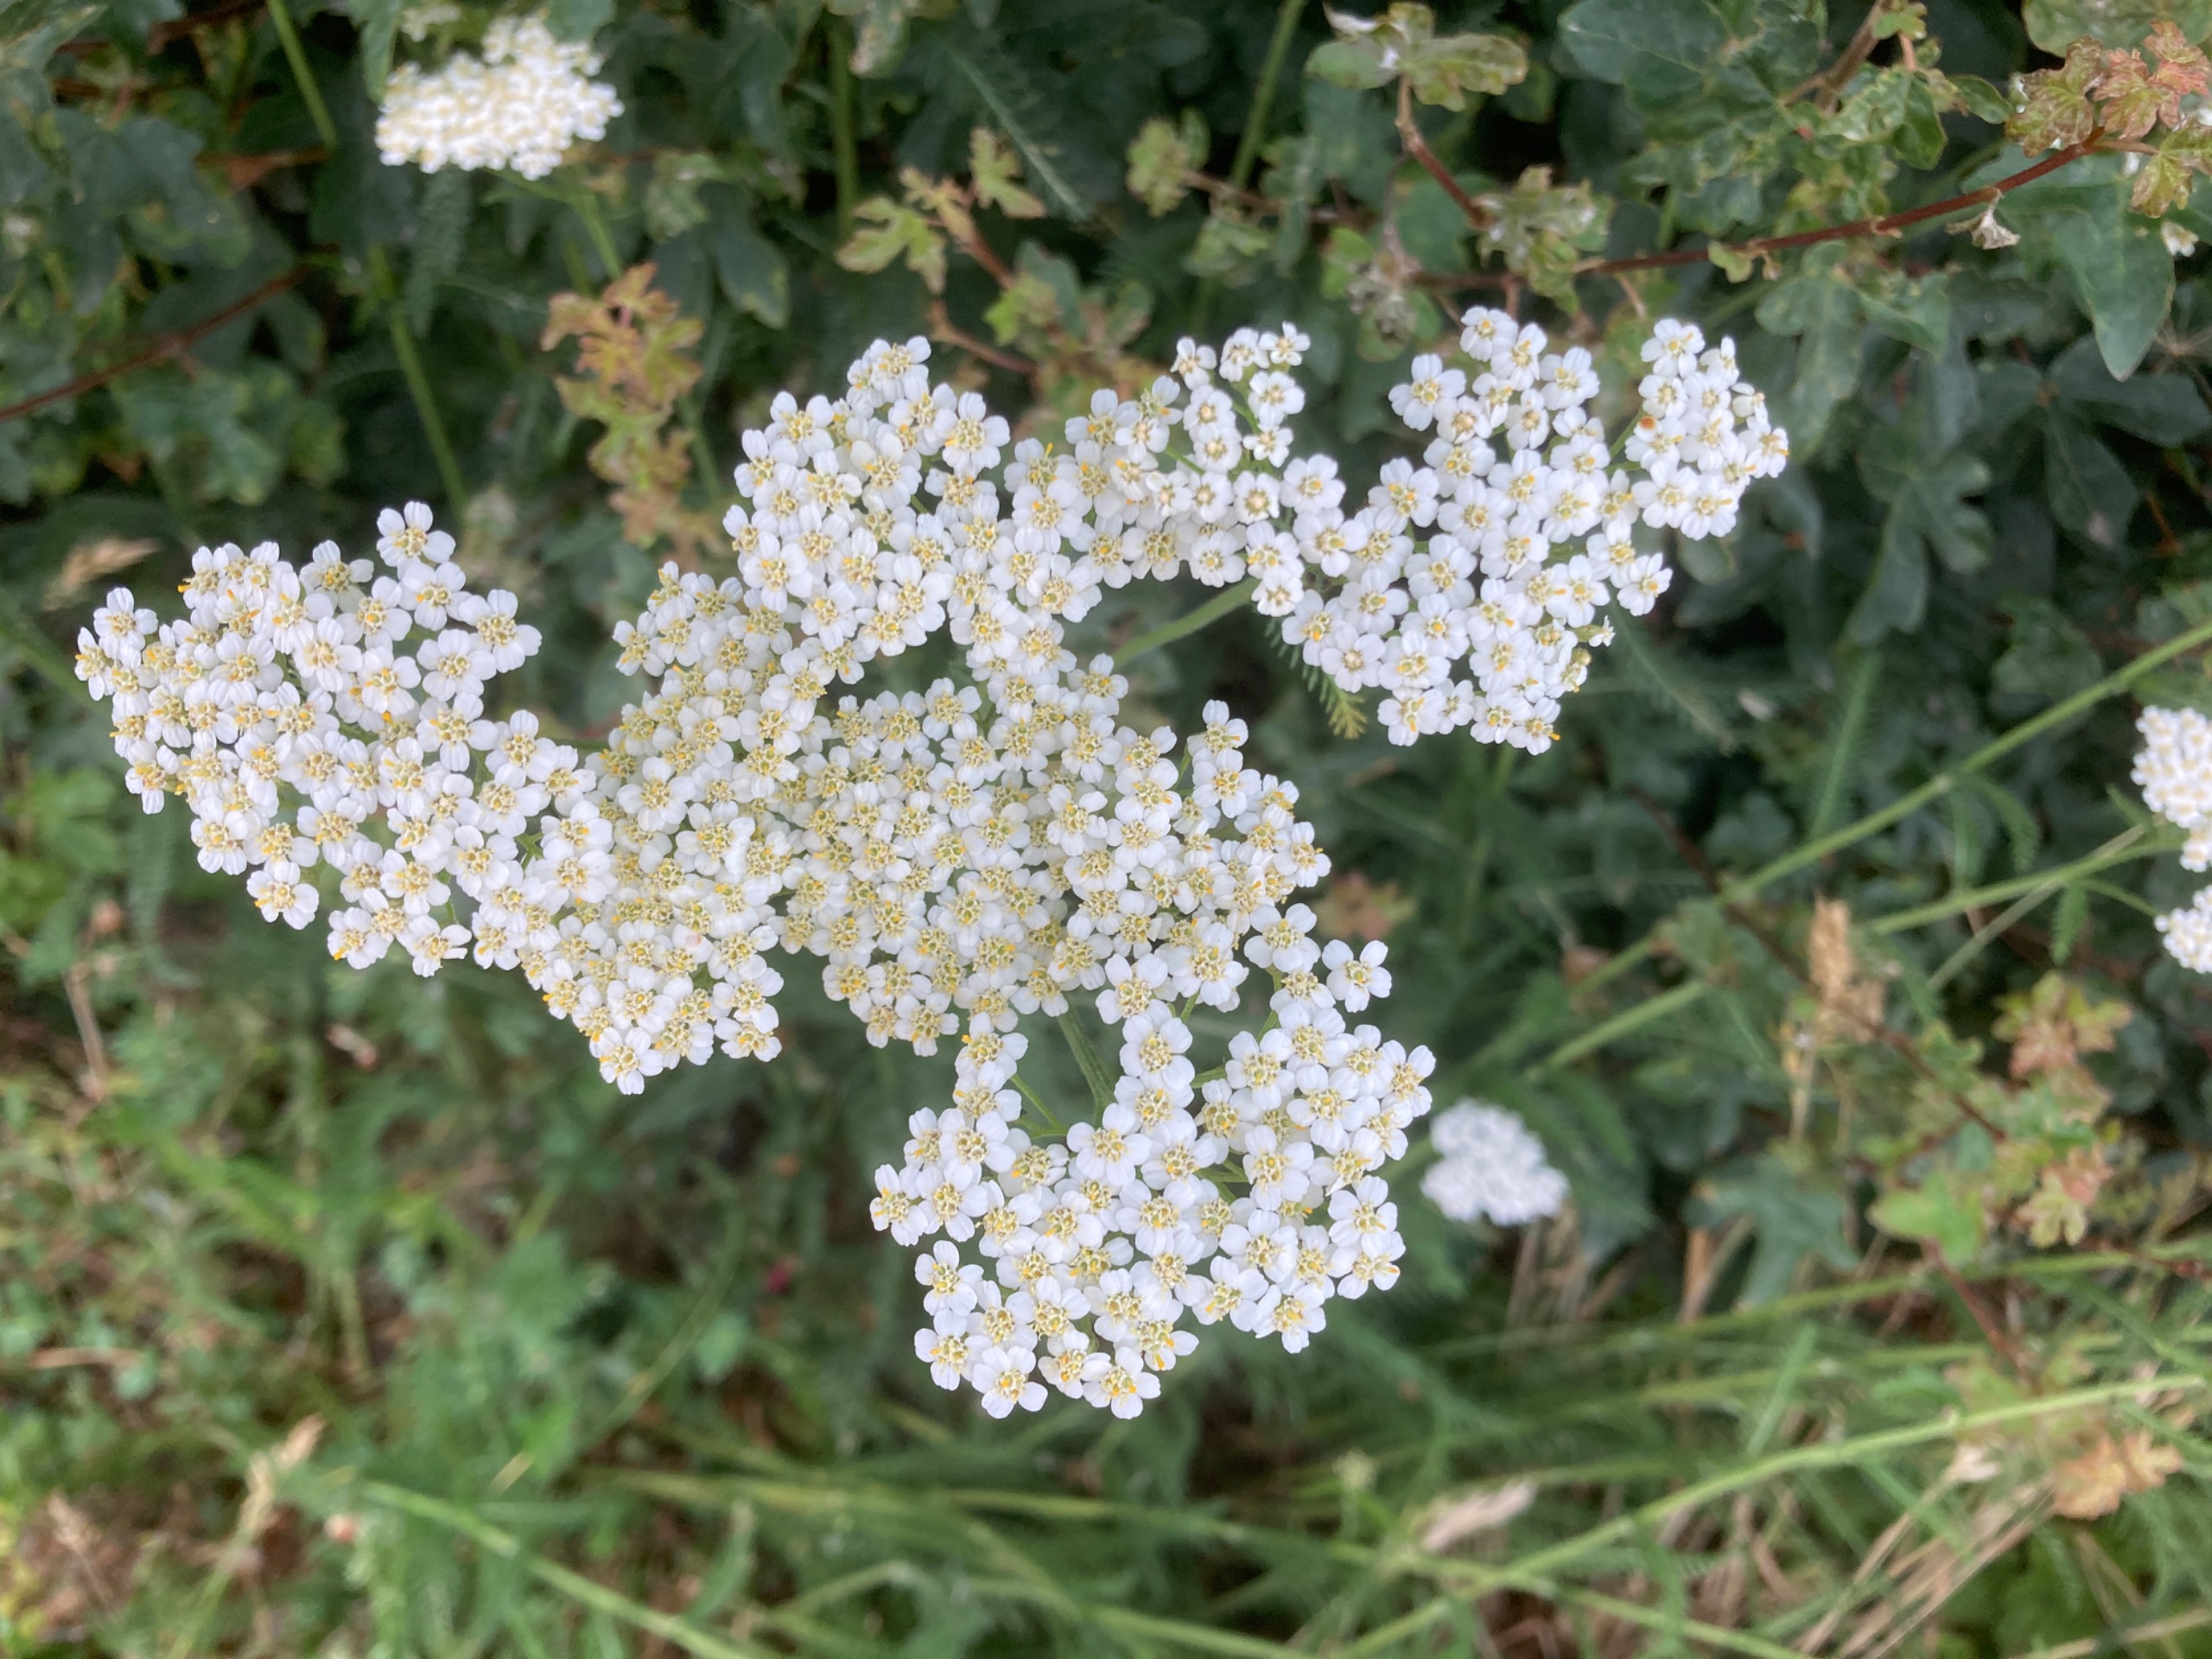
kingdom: Plantae
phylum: Tracheophyta
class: Magnoliopsida
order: Asterales
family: Asteraceae
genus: Achillea
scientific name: Achillea millefolium
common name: Almindelig røllike
